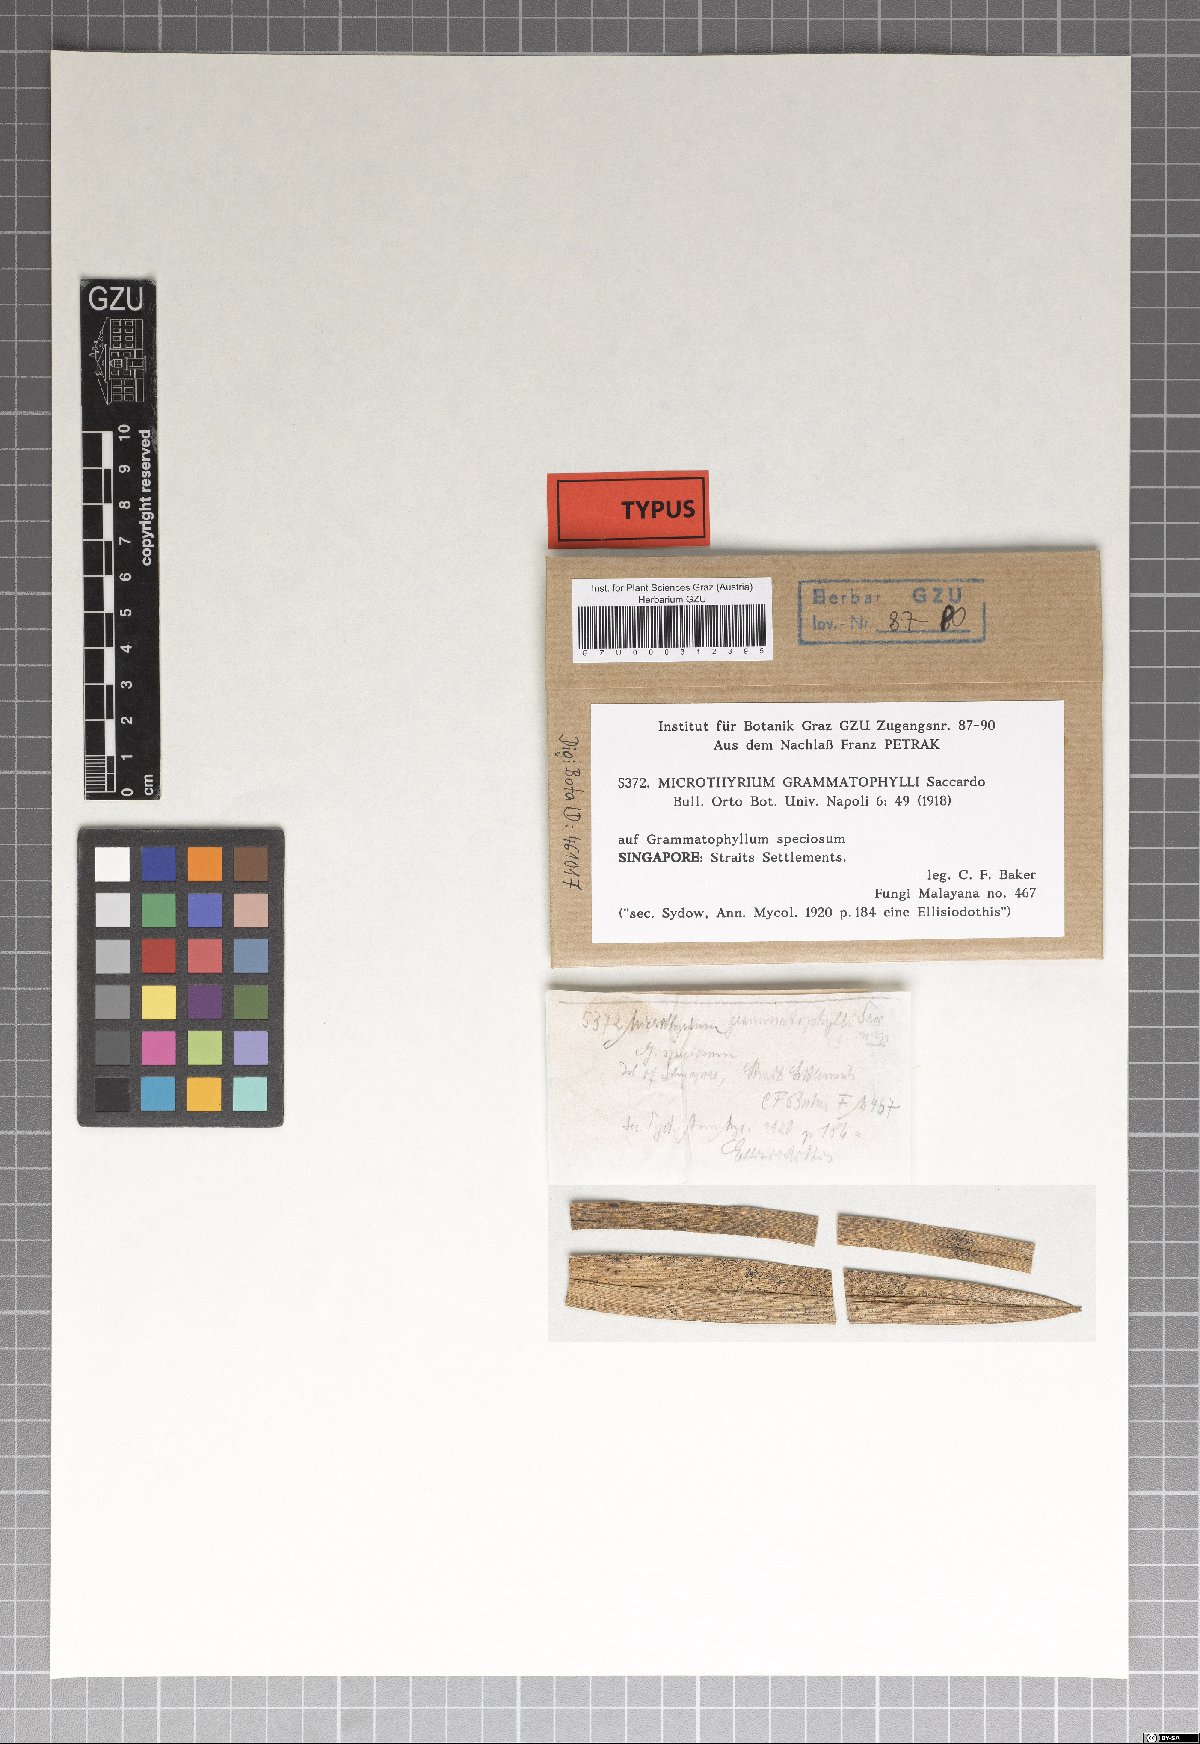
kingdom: Fungi
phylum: Ascomycota
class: Dothideomycetes
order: Microthyriales
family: Microthyriaceae
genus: Microthyrium
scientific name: Microthyrium grammatophylli
